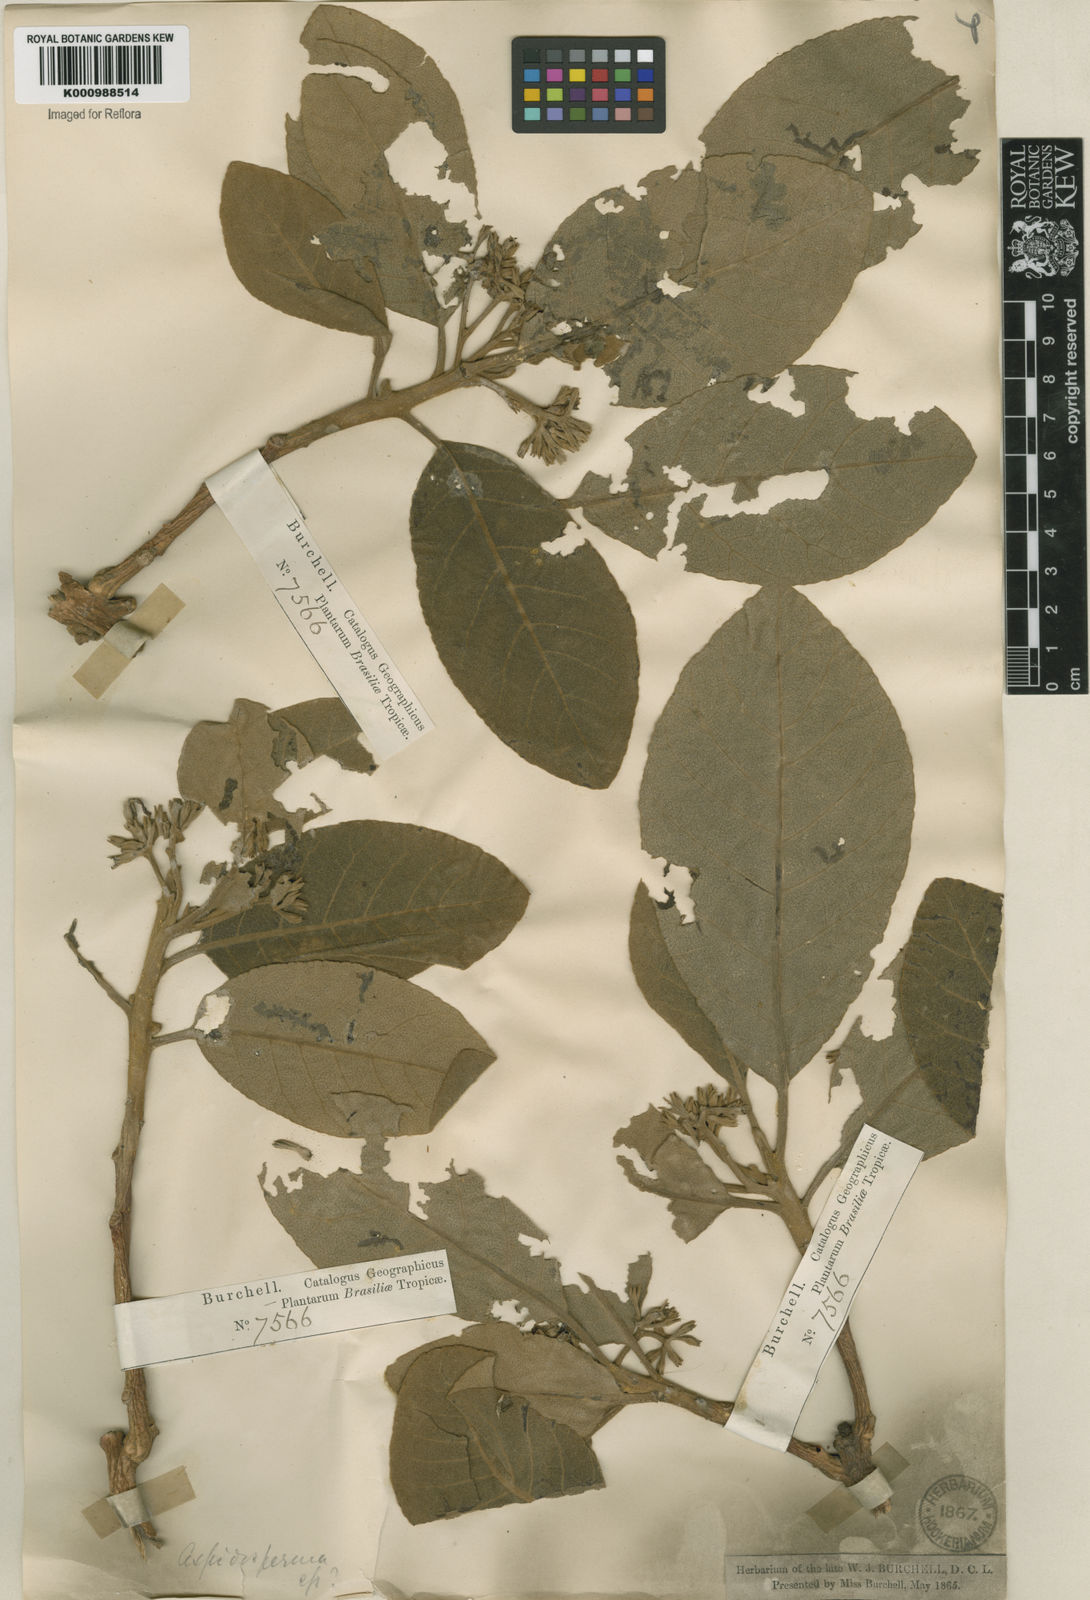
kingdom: Plantae
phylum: Tracheophyta
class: Magnoliopsida
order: Gentianales
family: Apocynaceae
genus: Aspidosperma
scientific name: Aspidosperma macrocarpon
